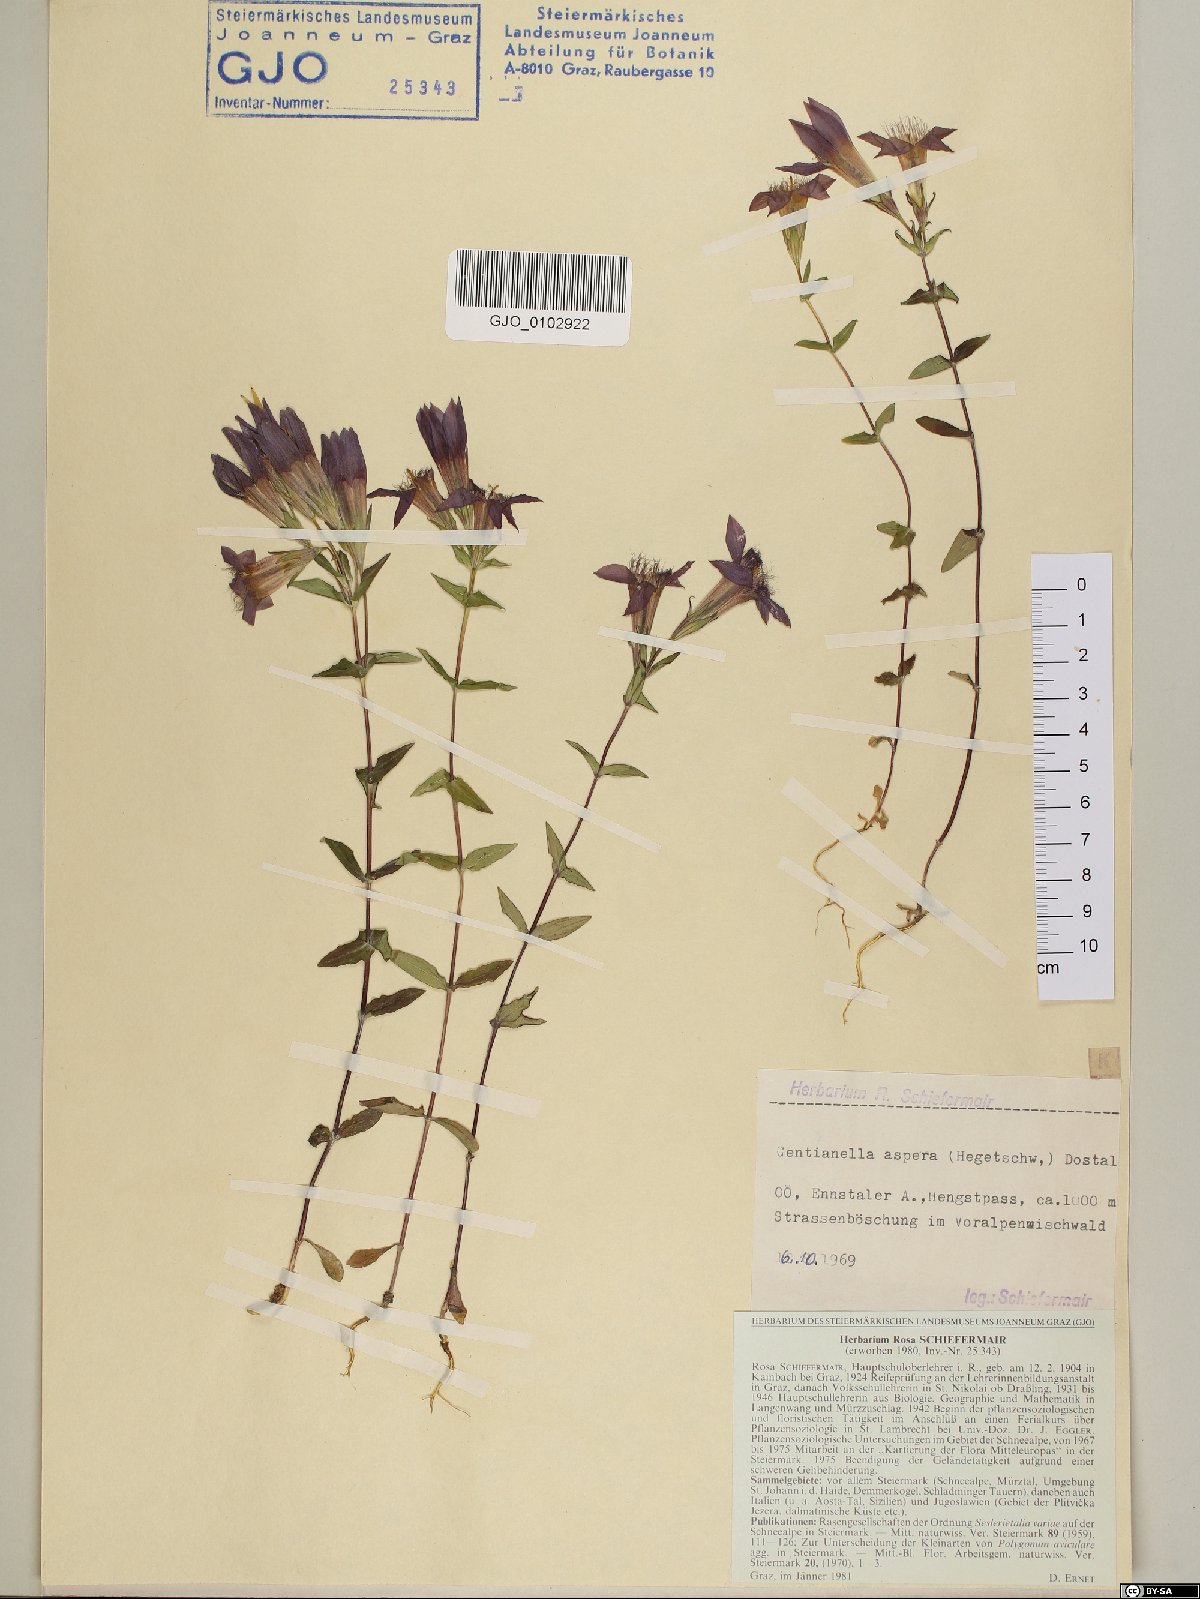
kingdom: Plantae
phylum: Tracheophyta
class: Magnoliopsida
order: Gentianales
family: Gentianaceae
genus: Gentianella
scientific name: Gentianella obtusifolia
